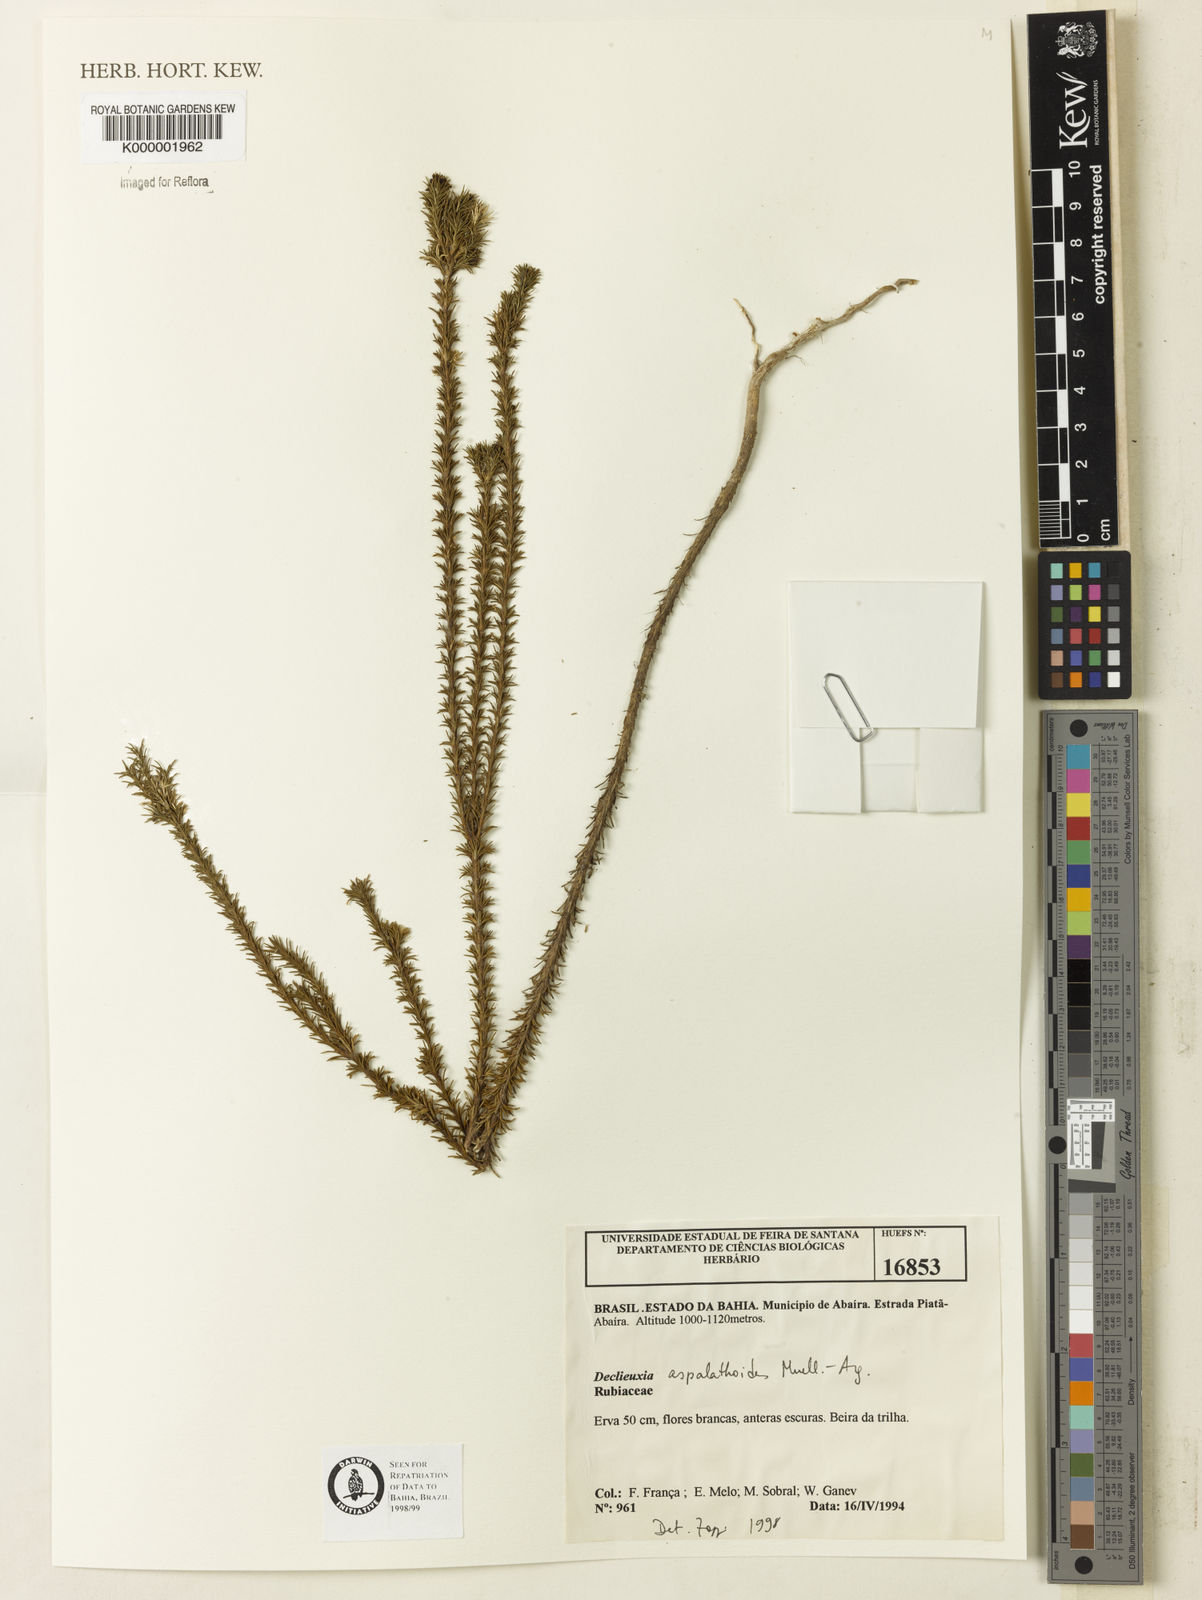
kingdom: Plantae
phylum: Tracheophyta
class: Magnoliopsida
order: Gentianales
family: Rubiaceae
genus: Declieuxia
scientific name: Declieuxia aspalathoides
